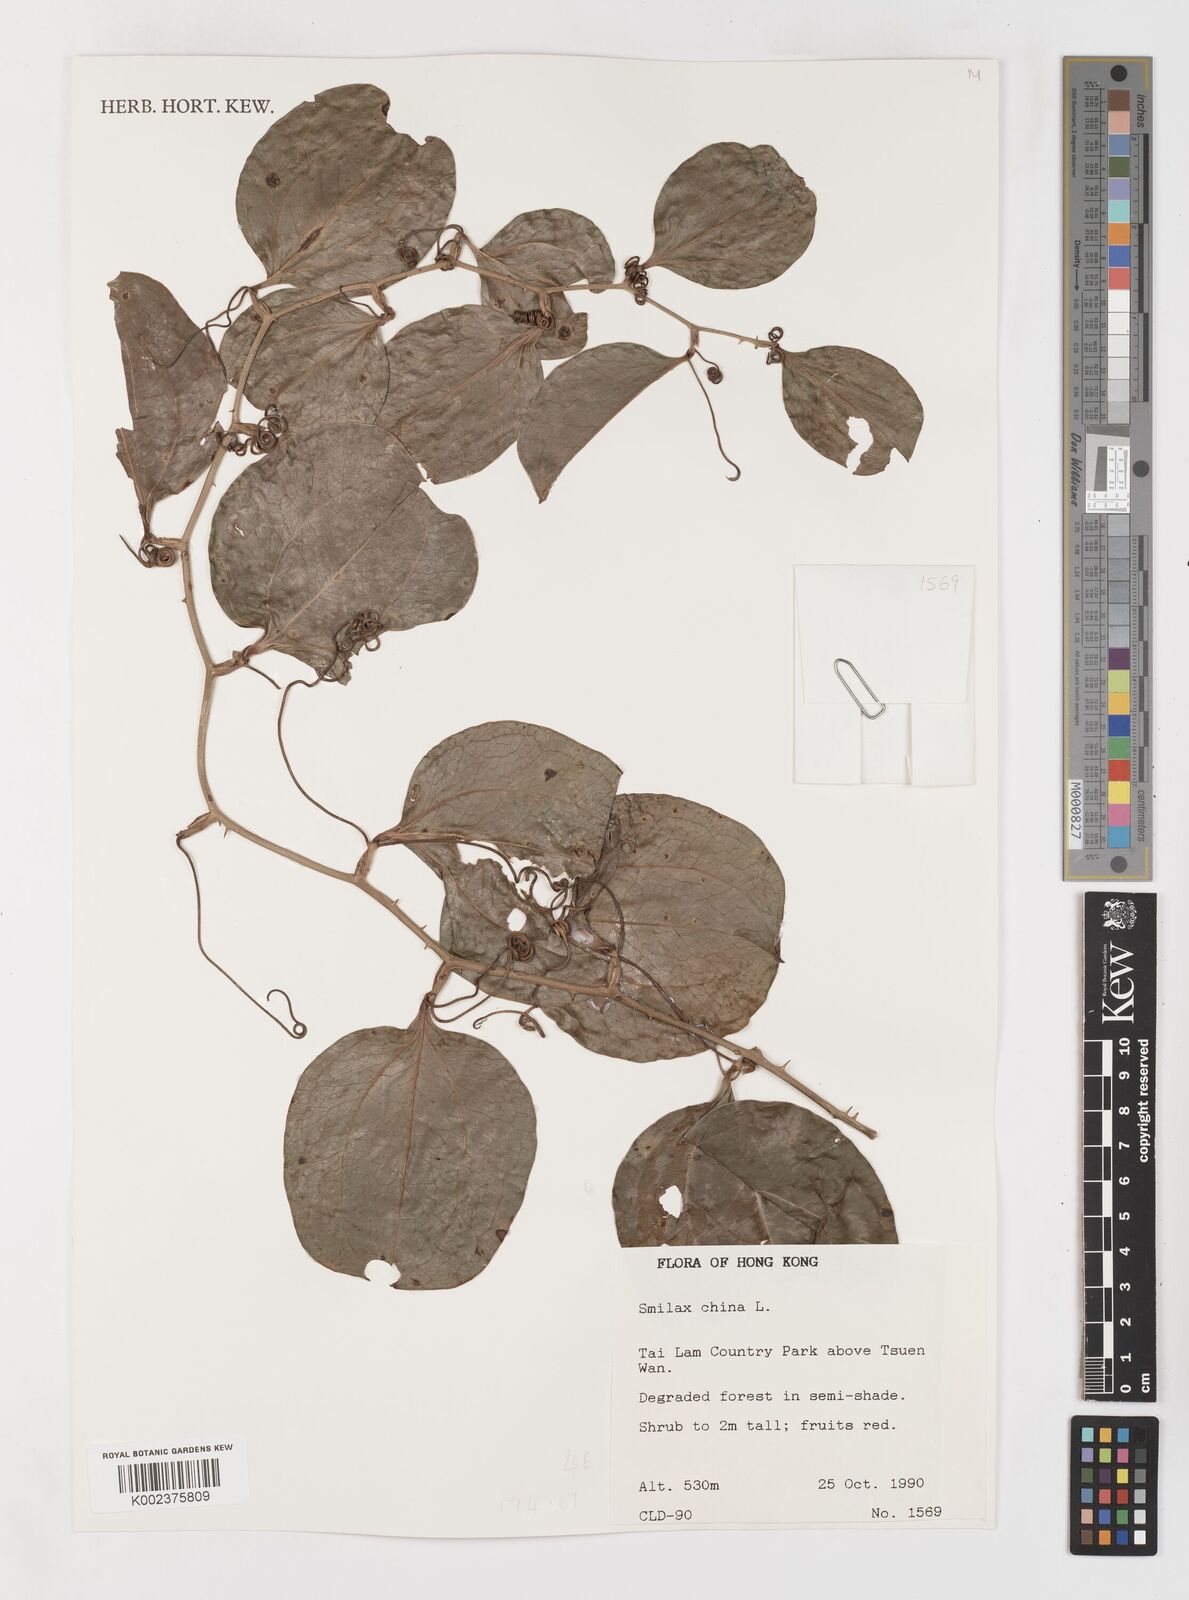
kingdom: Plantae
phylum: Tracheophyta
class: Liliopsida
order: Liliales
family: Smilacaceae
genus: Smilax
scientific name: Smilax china
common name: Chinaroot
